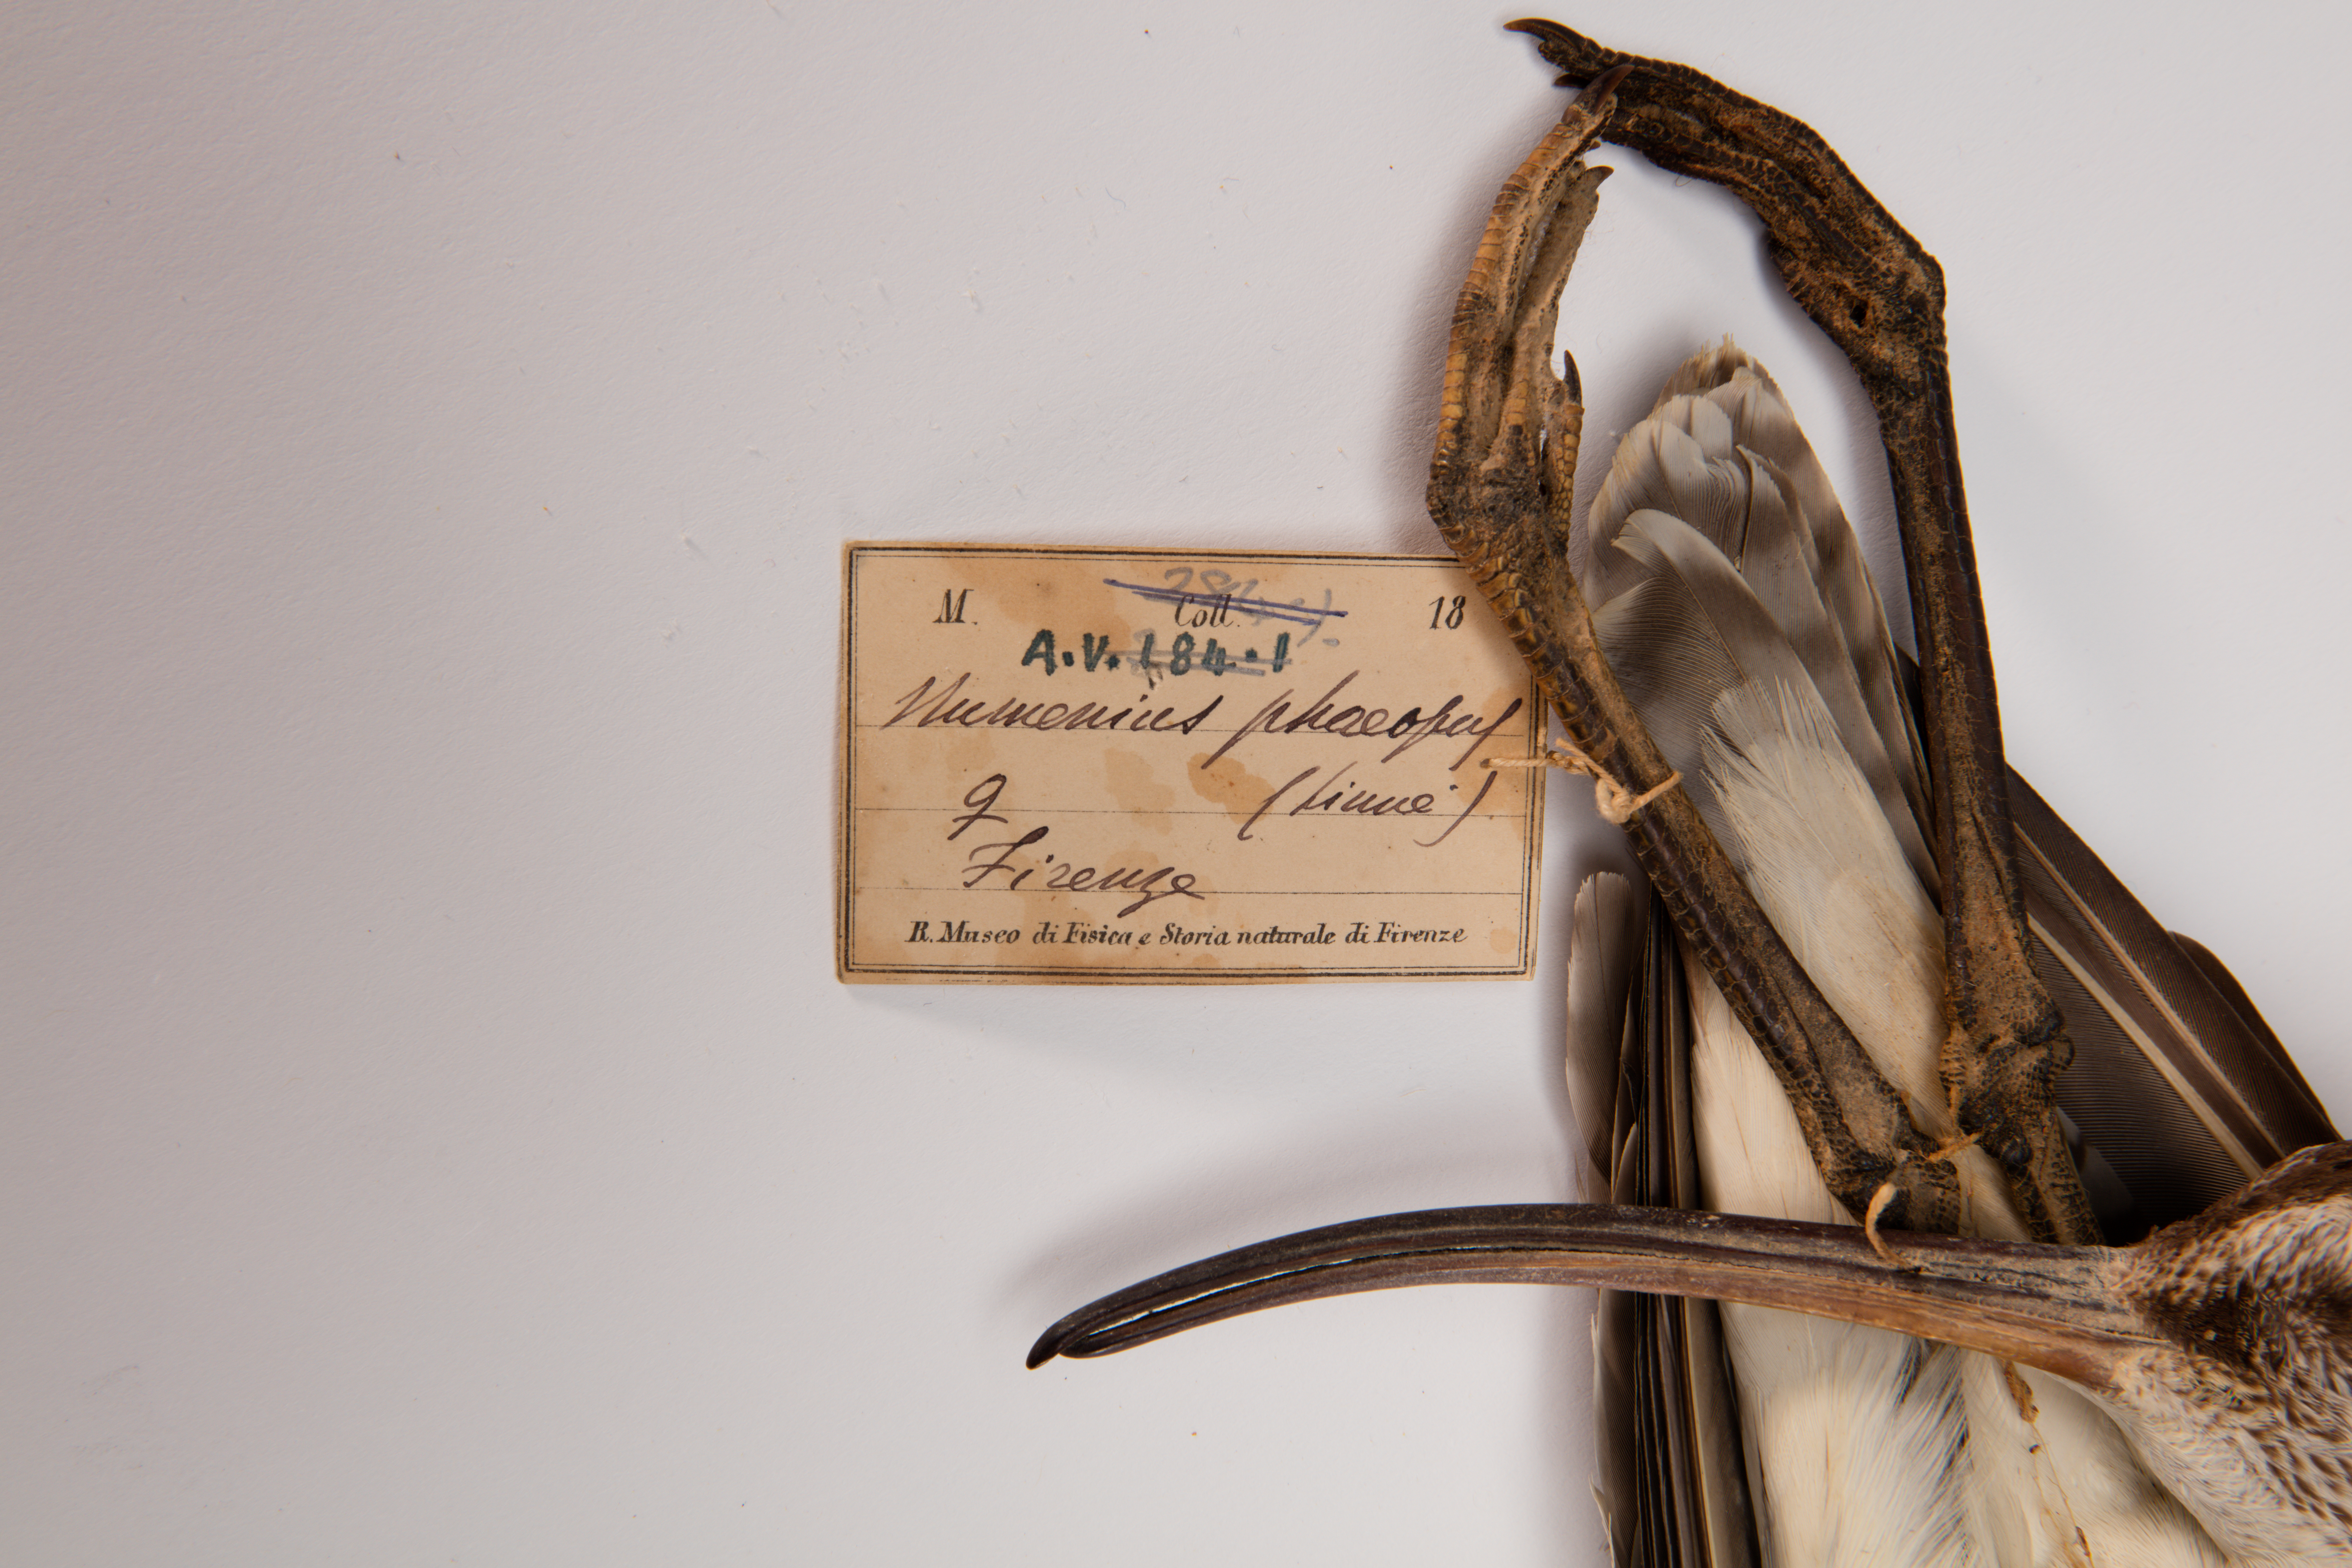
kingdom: Animalia
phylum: Chordata
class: Aves
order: Charadriiformes
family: Scolopacidae
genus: Numenius
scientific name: Numenius phaeopus
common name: Whimbrel
